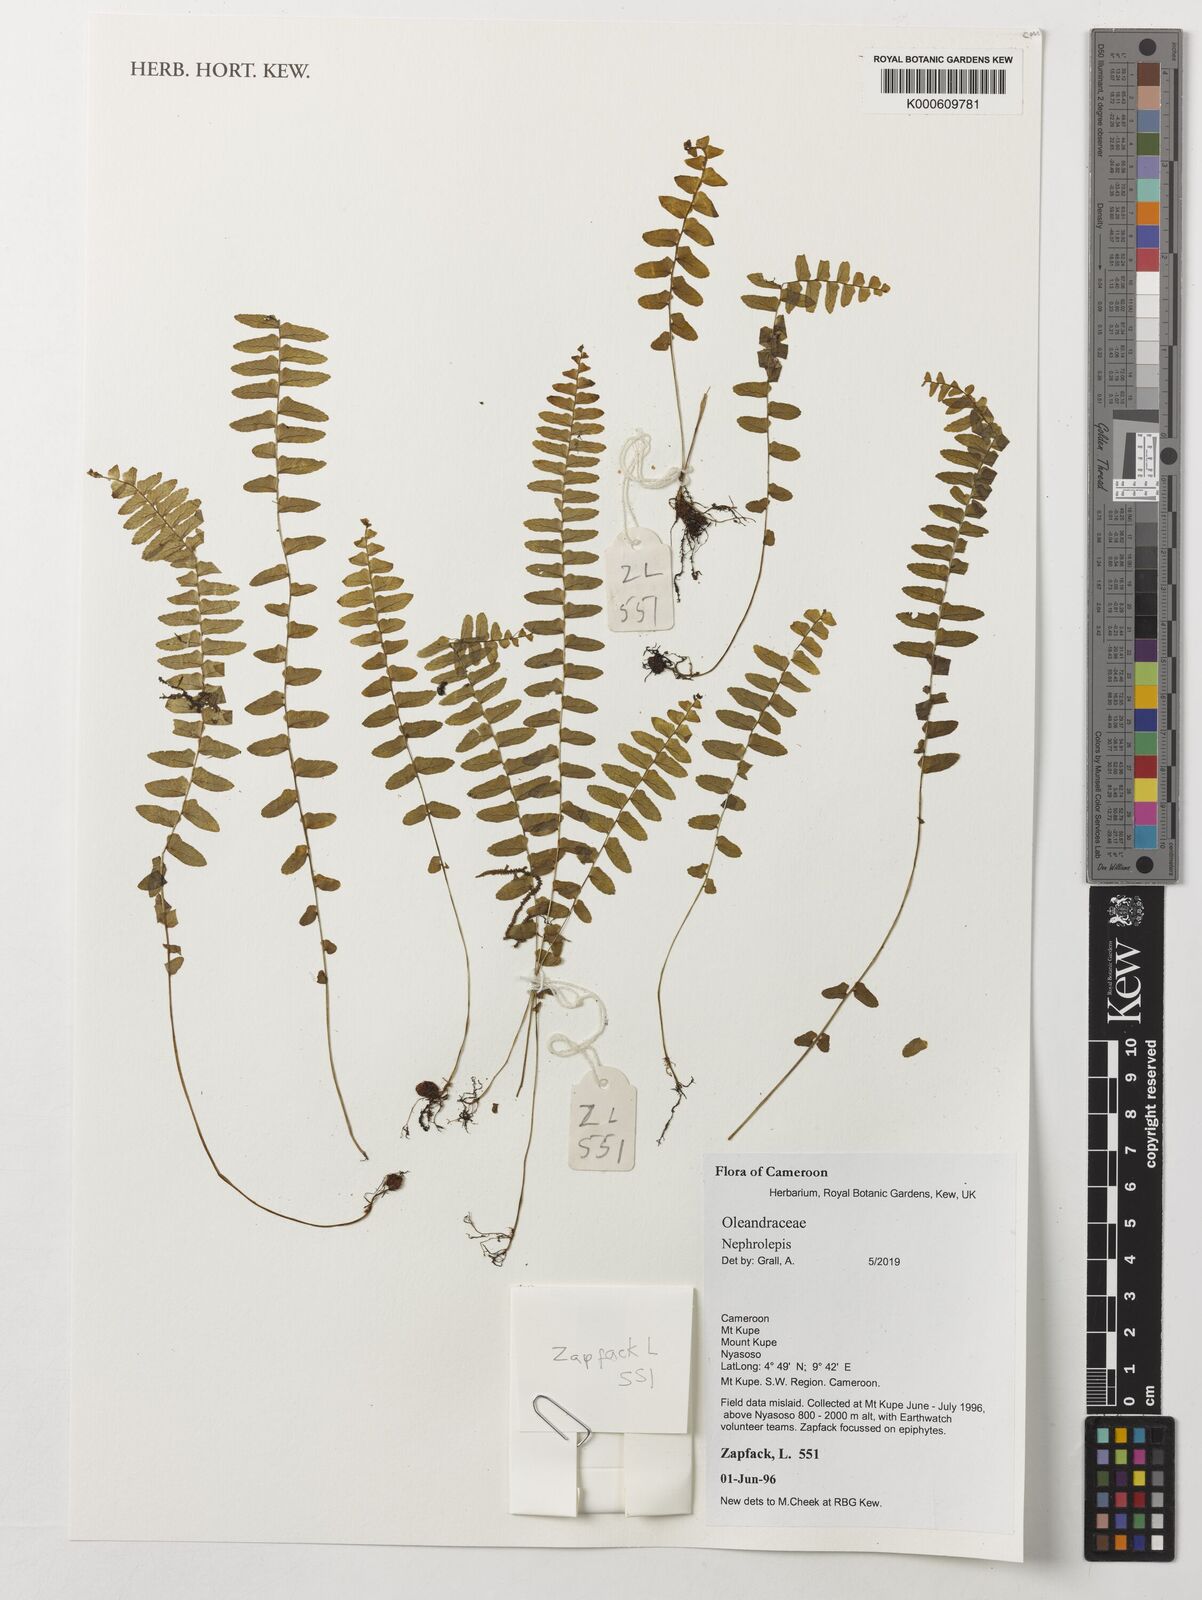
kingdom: Plantae
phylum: Tracheophyta
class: Polypodiopsida
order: Polypodiales
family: Nephrolepidaceae
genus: Nephrolepis
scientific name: Nephrolepis
